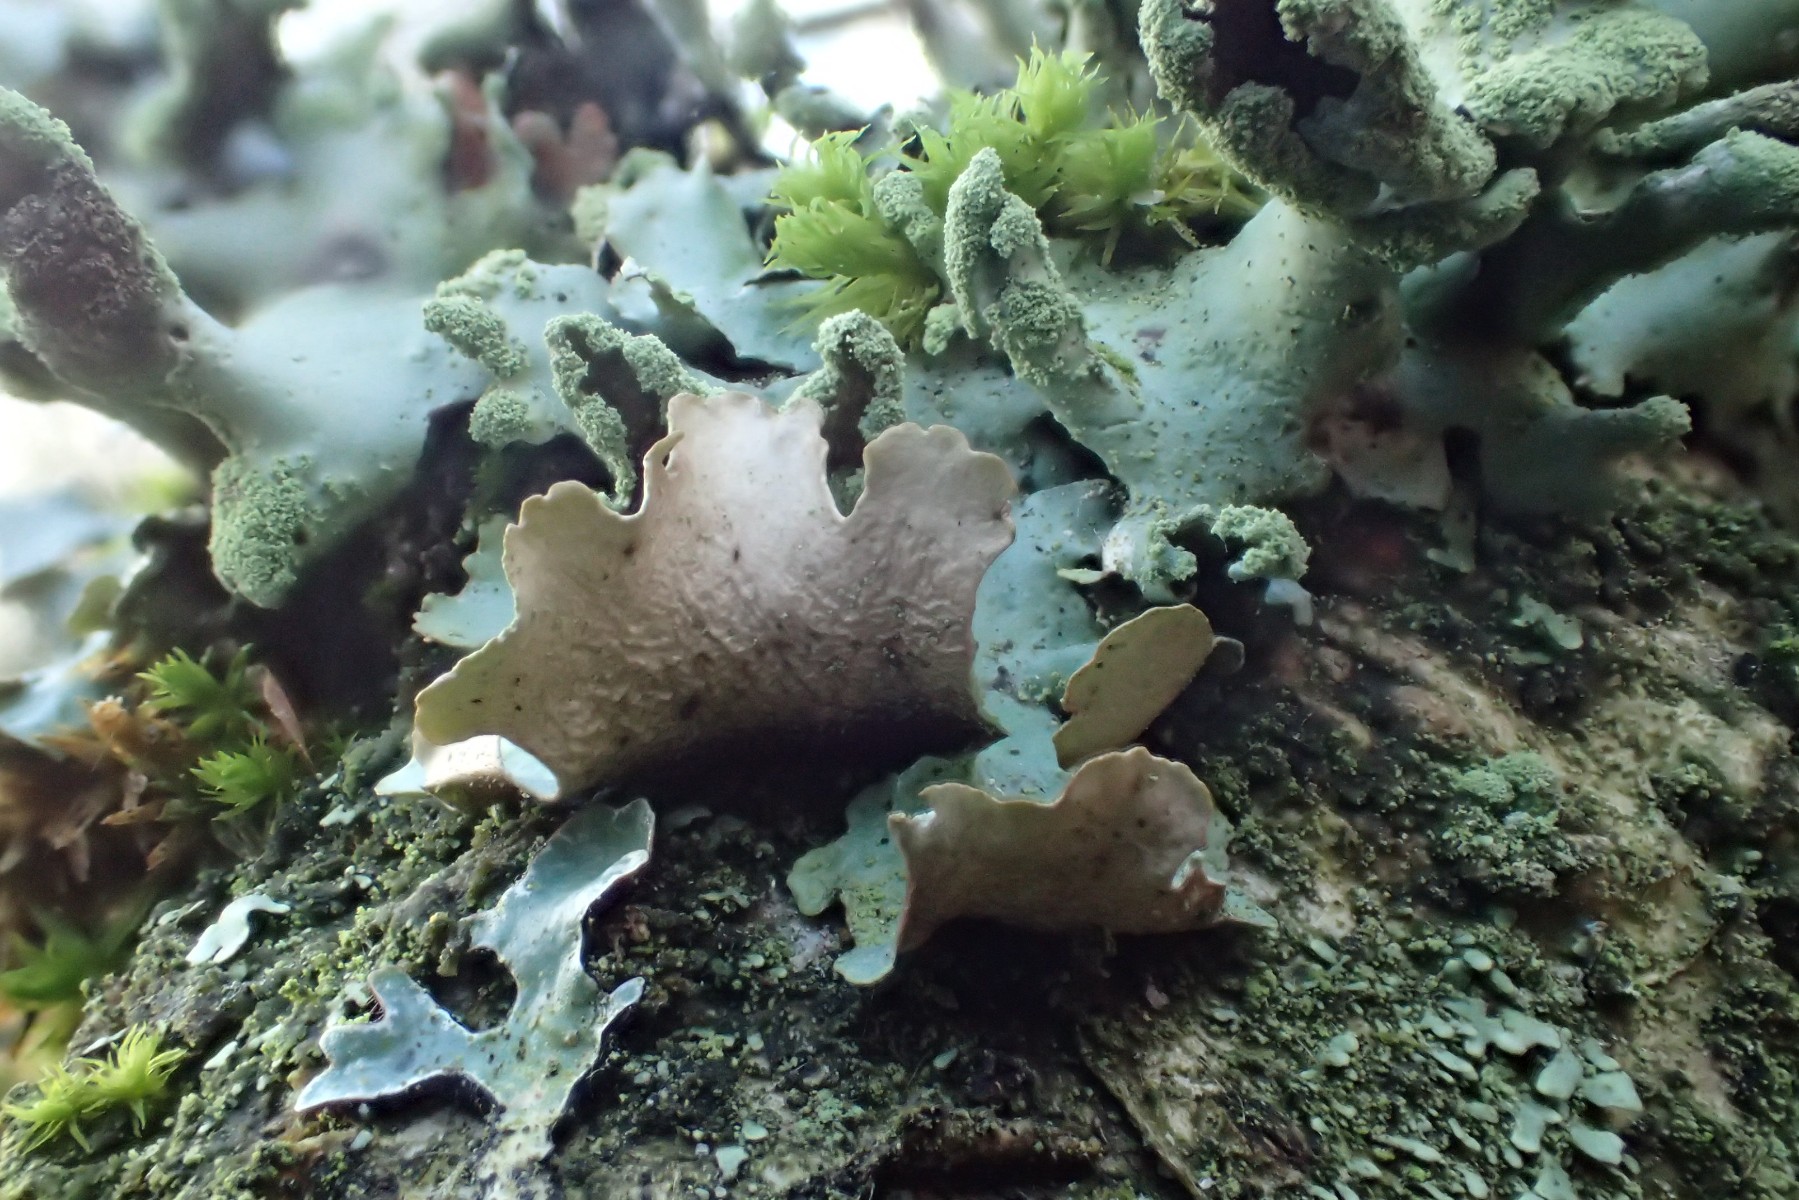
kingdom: Fungi
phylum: Ascomycota
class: Lecanoromycetes
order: Lecanorales
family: Parmeliaceae
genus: Hypotrachyna
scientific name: Hypotrachyna revoluta
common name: bleggrå skållav
